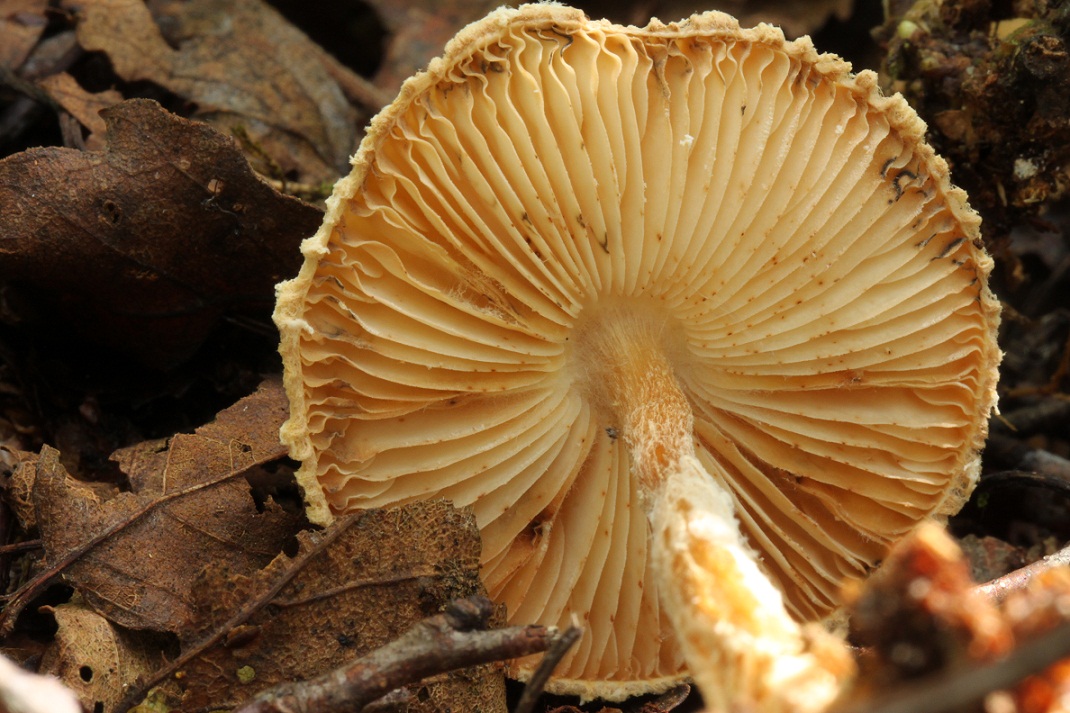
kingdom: Fungi
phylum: Basidiomycota
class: Agaricomycetes
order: Agaricales
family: Agaricaceae
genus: Lepiota
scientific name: Lepiota magnispora
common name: gulfnugget parasolhat
